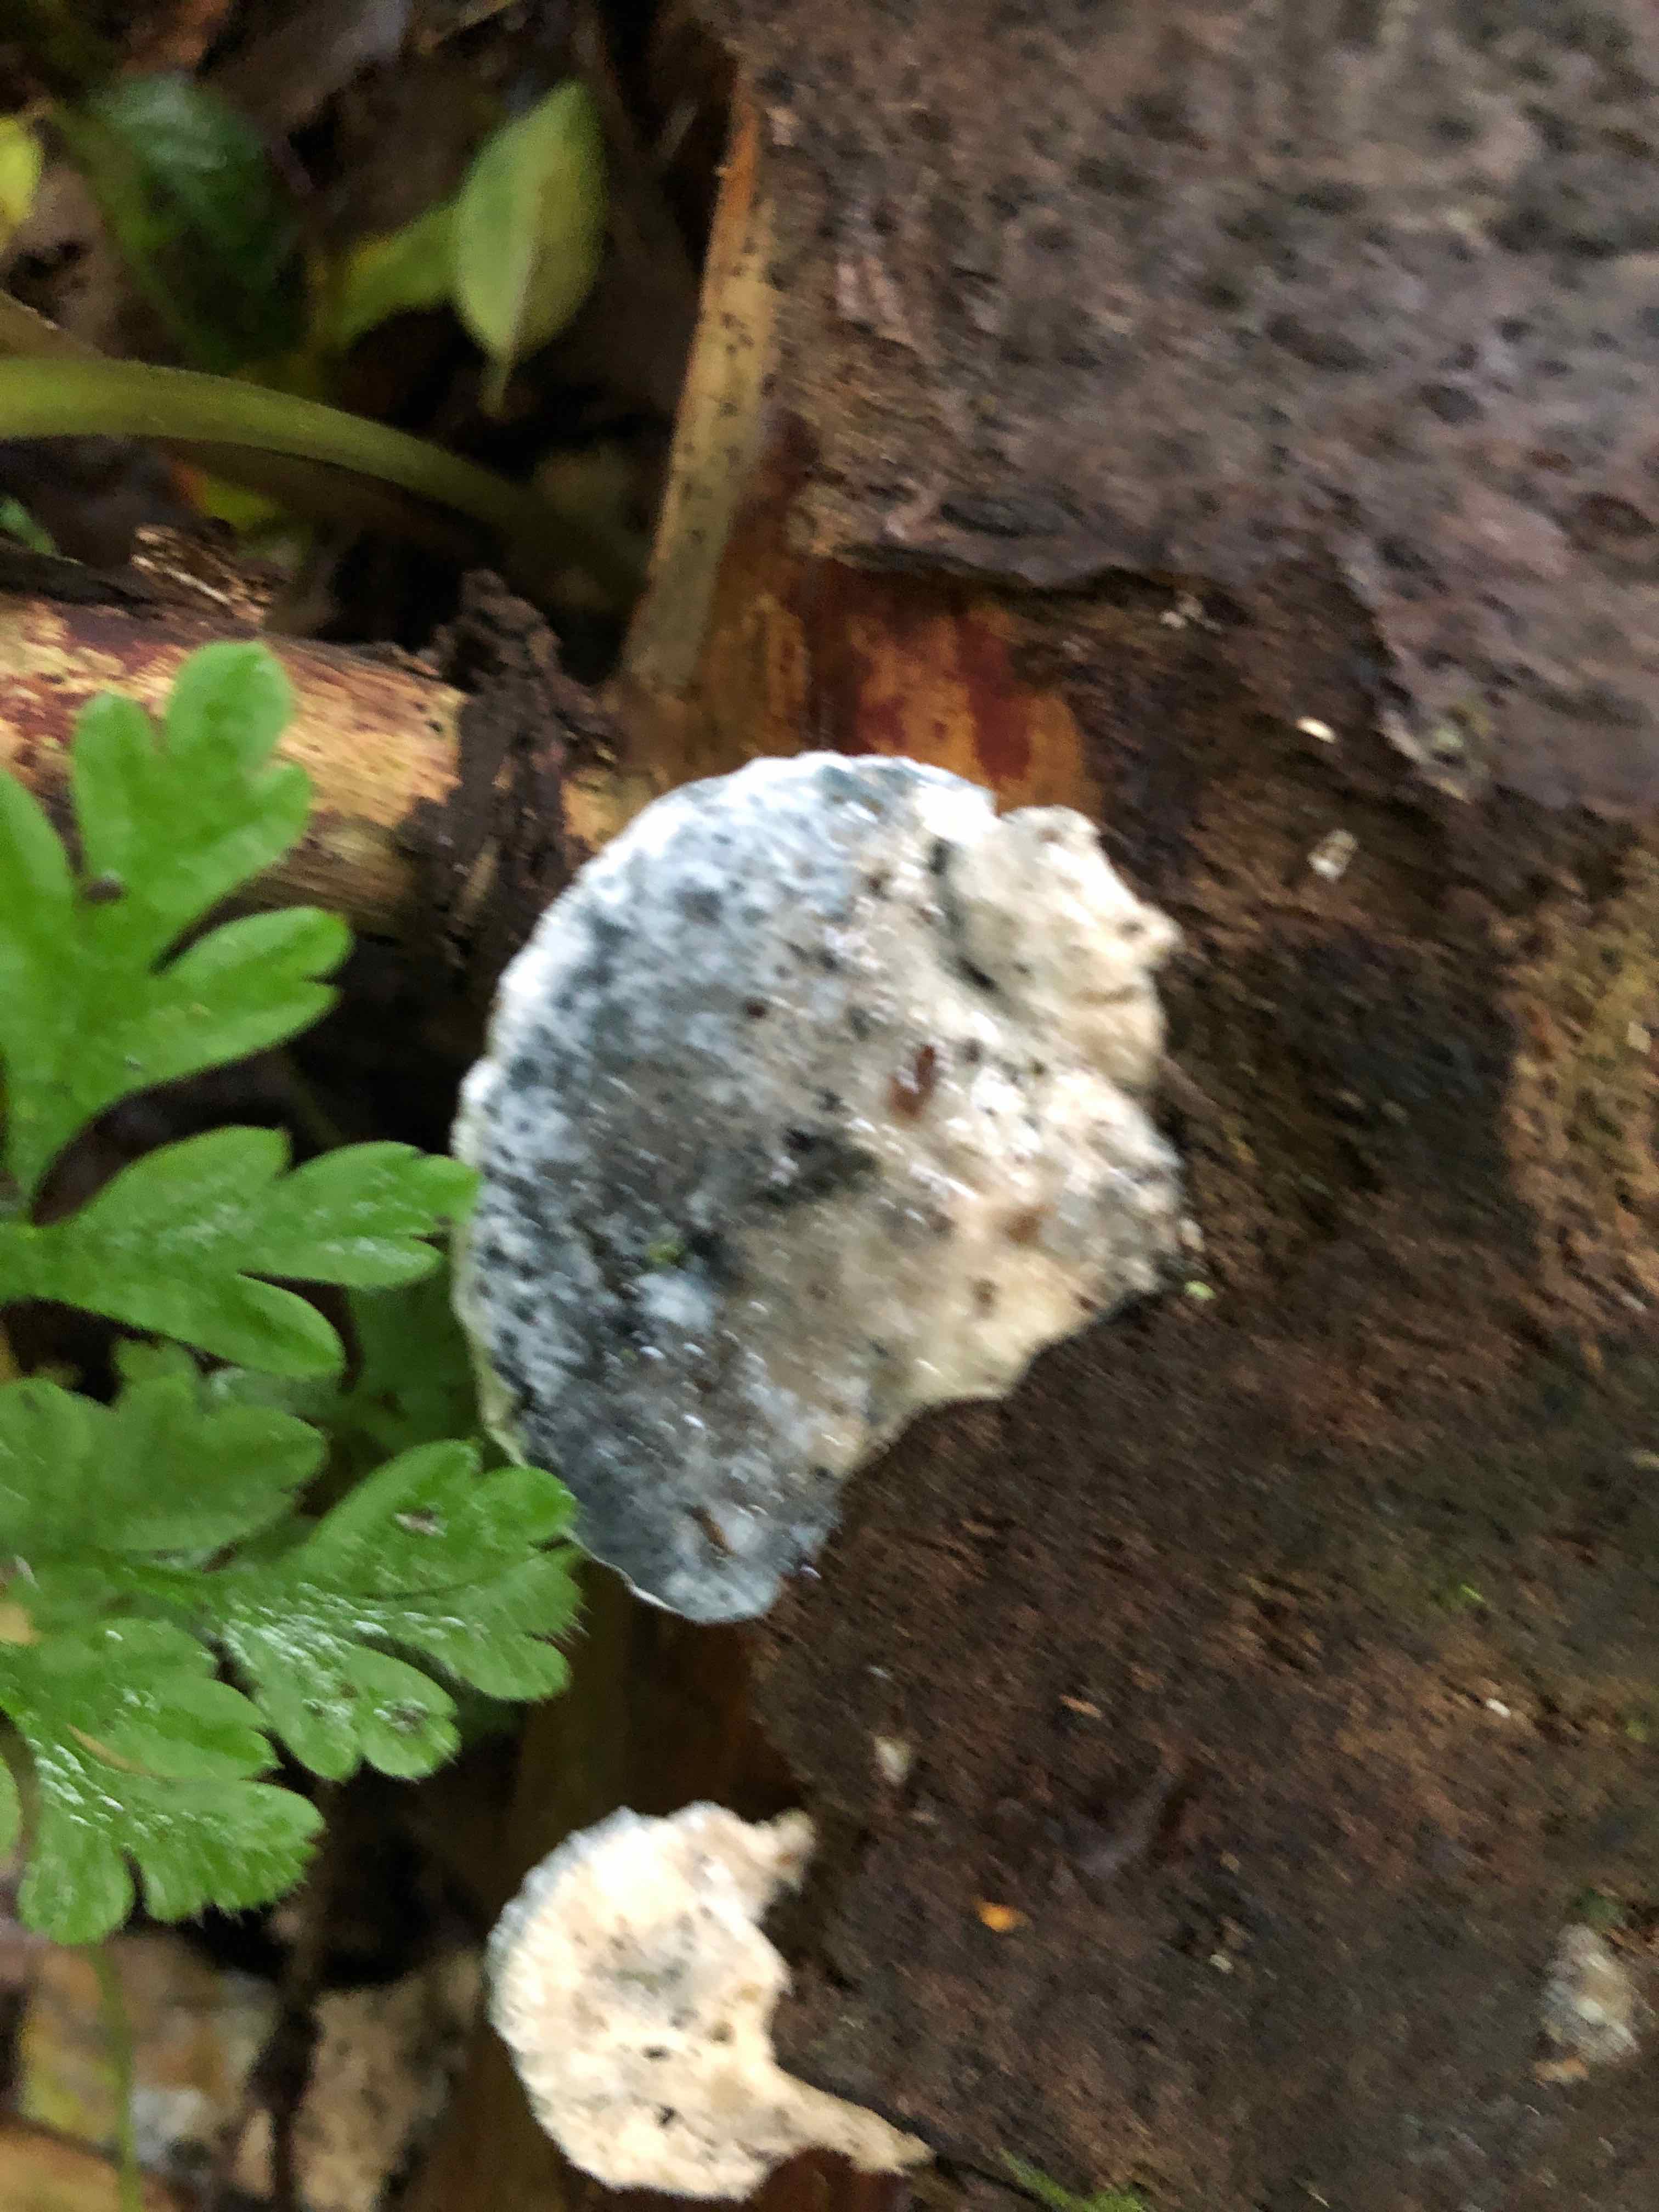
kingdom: Fungi
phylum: Basidiomycota
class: Agaricomycetes
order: Polyporales
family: Polyporaceae
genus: Cyanosporus
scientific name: Cyanosporus caesius
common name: blålig kødporesvamp
